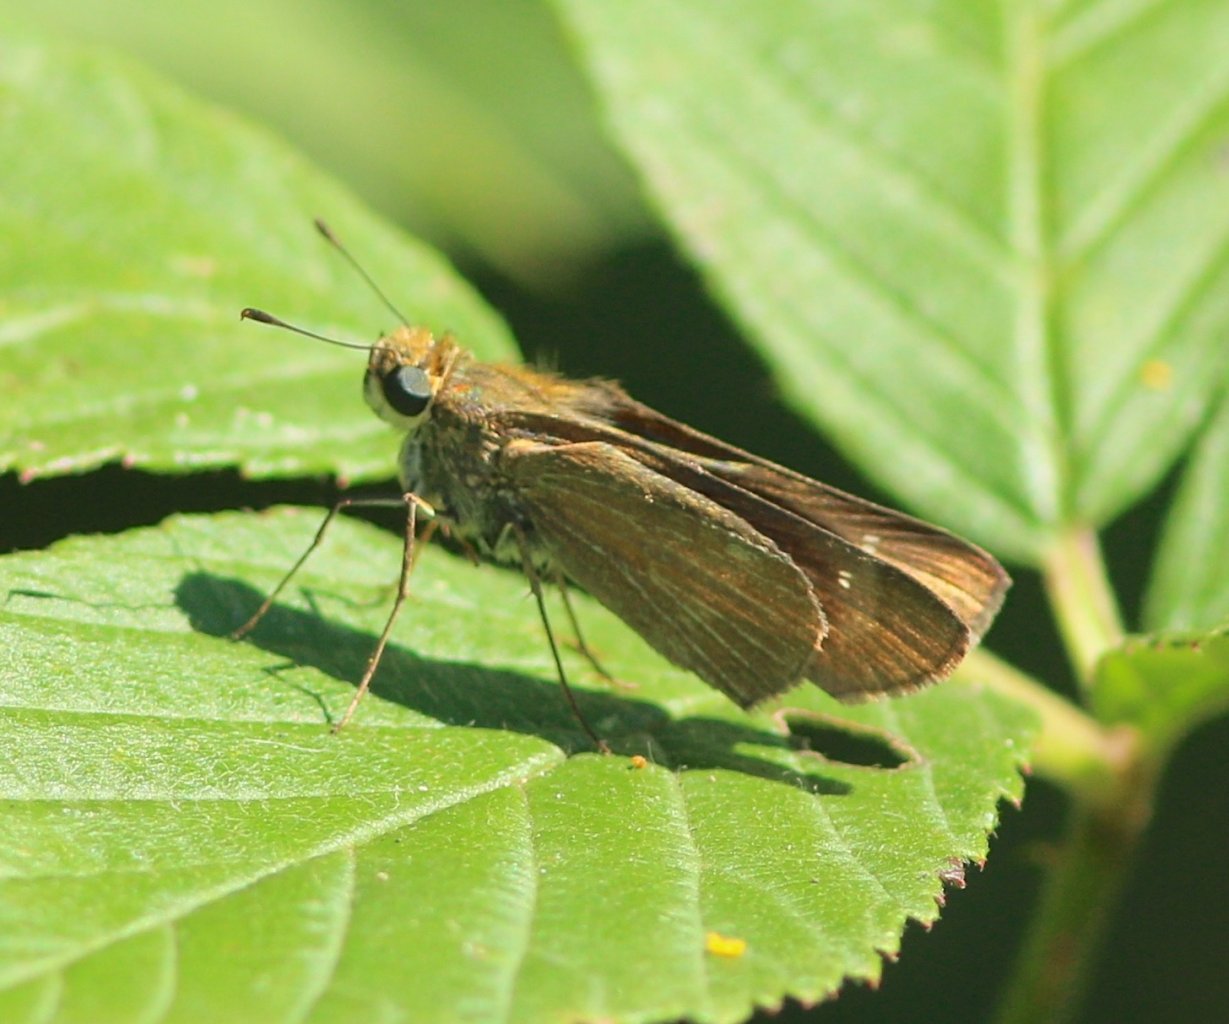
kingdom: Animalia
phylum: Arthropoda
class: Insecta
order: Lepidoptera
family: Hesperiidae
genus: Panoquina
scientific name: Panoquina ocola
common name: Ocola Skipper
